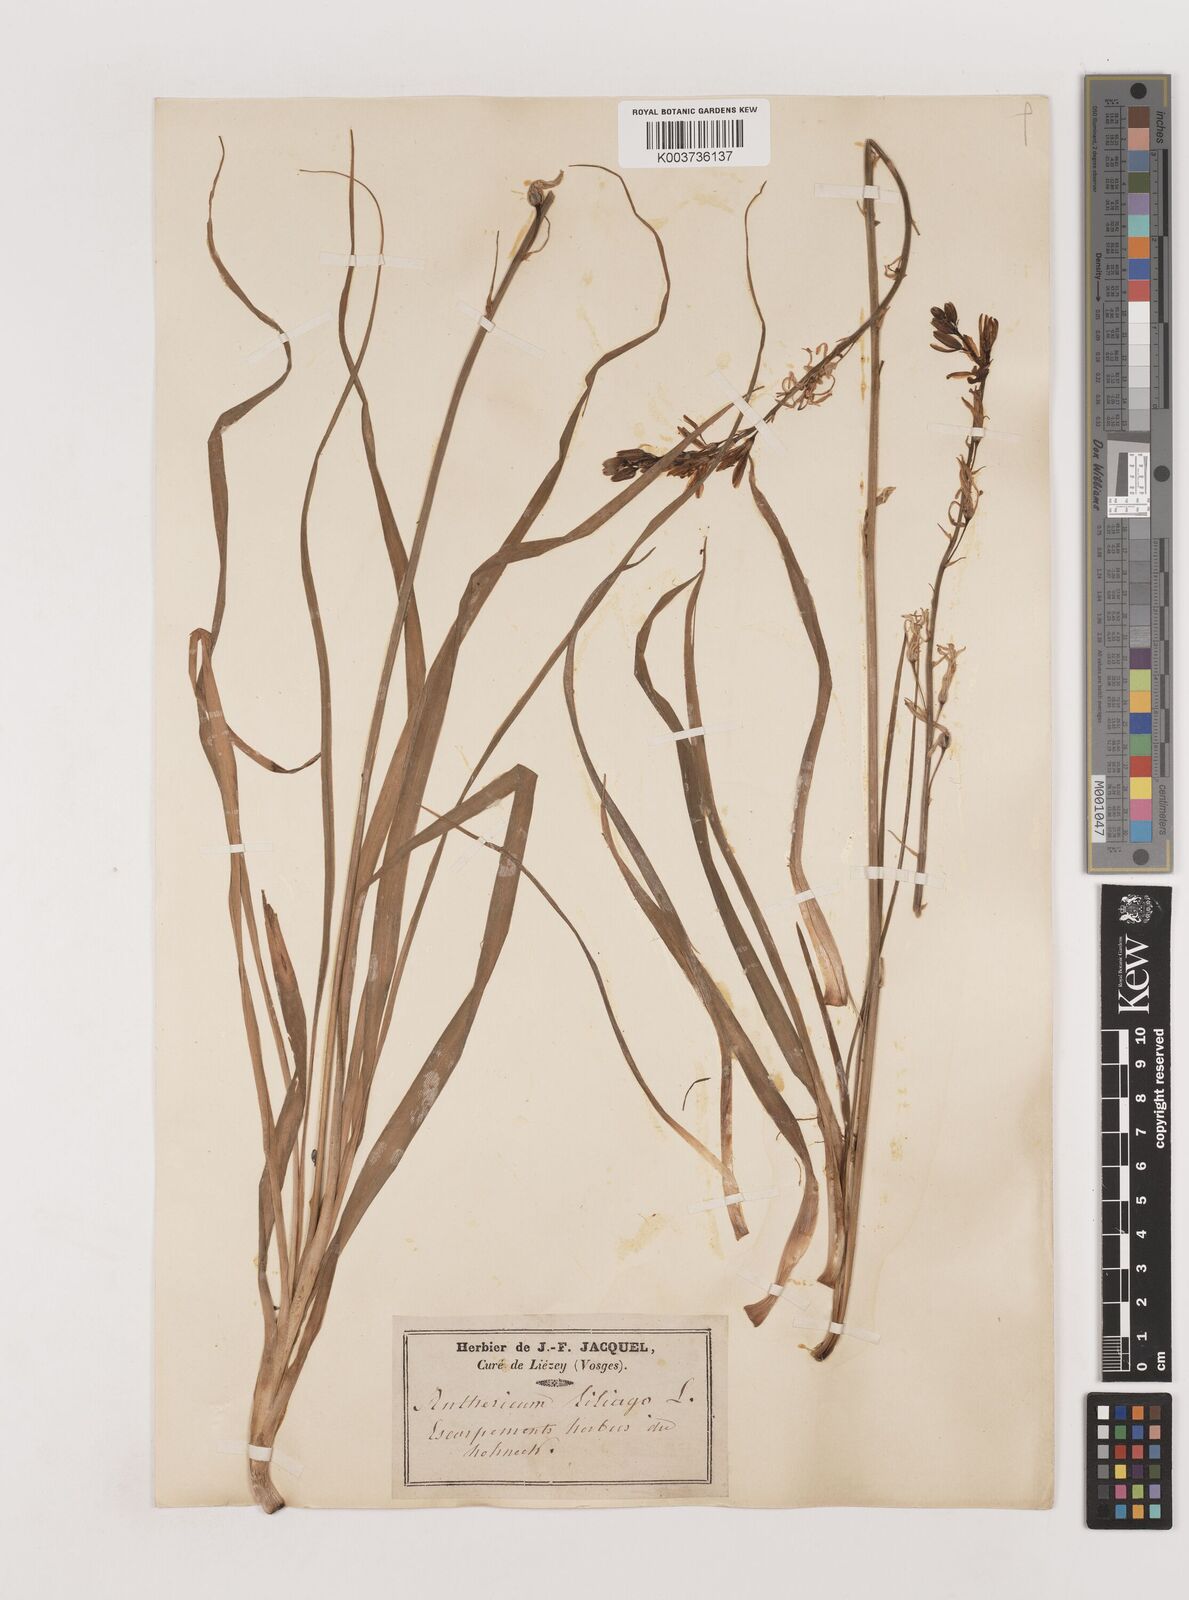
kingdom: Plantae
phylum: Tracheophyta
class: Liliopsida
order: Asparagales
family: Asparagaceae
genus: Anthericum
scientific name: Anthericum liliago
